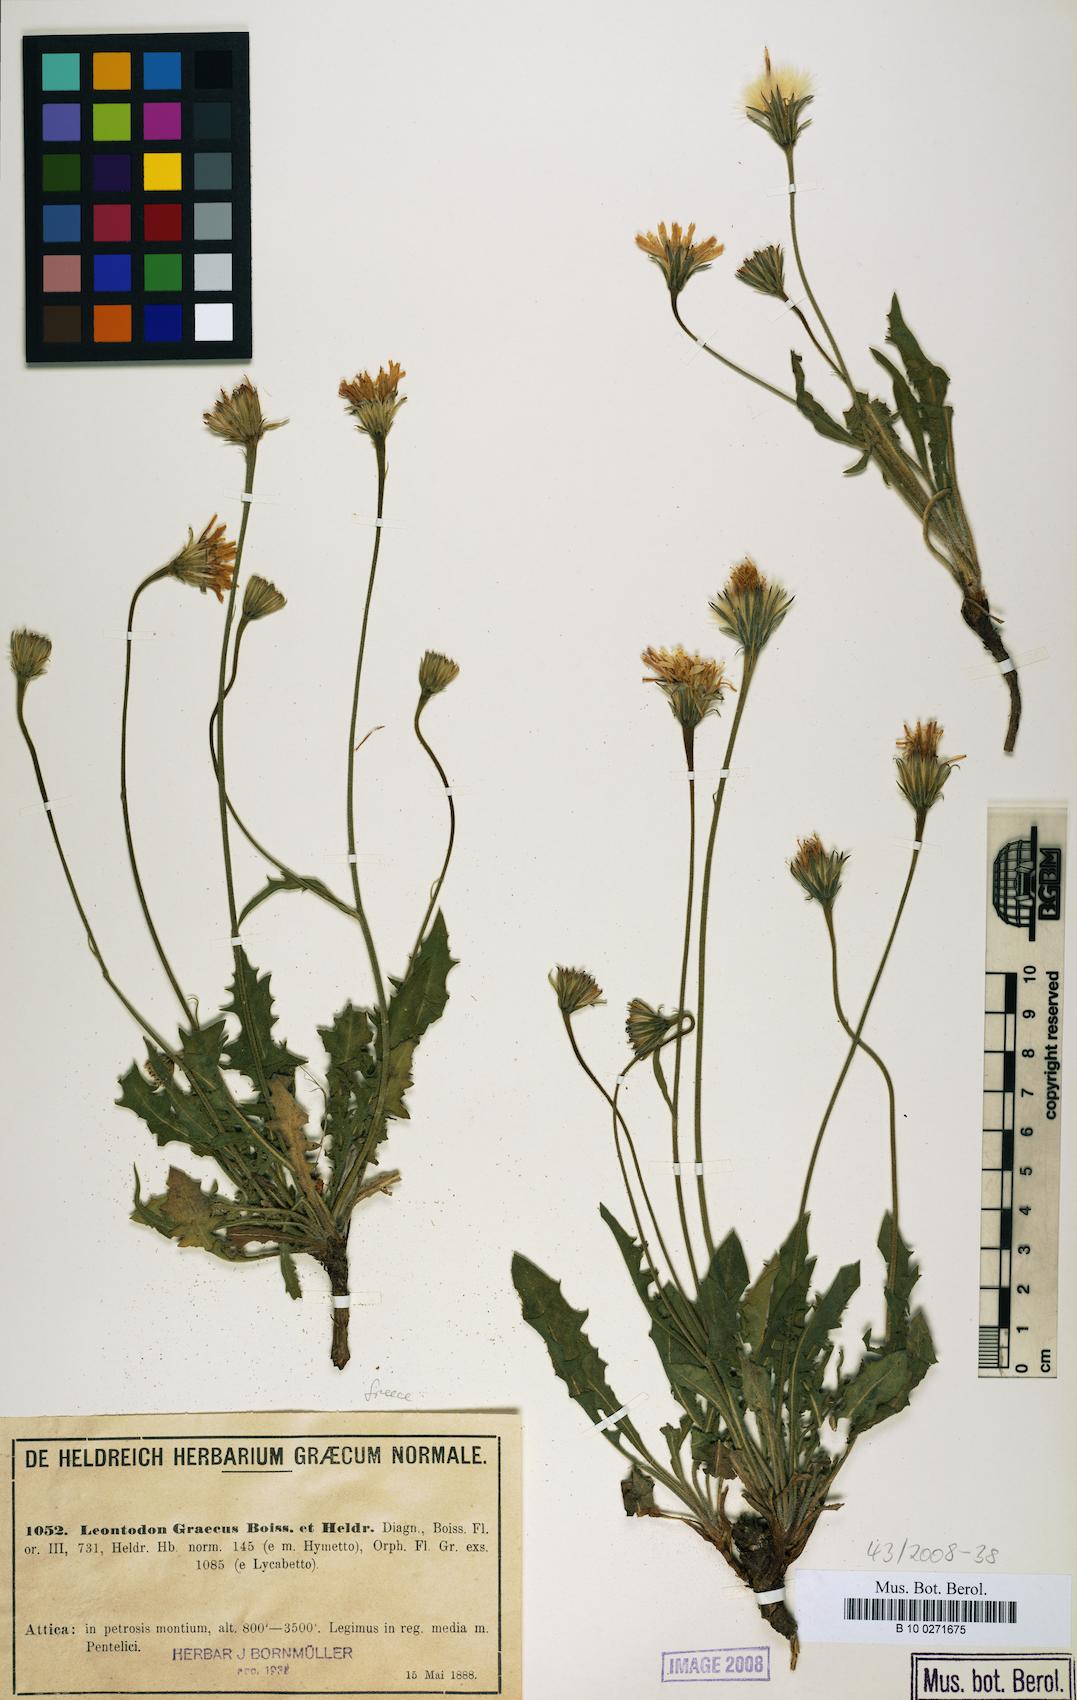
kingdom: Plantae
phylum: Tracheophyta
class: Magnoliopsida
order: Asterales
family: Asteraceae
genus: Leontodon
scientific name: Leontodon graecus
